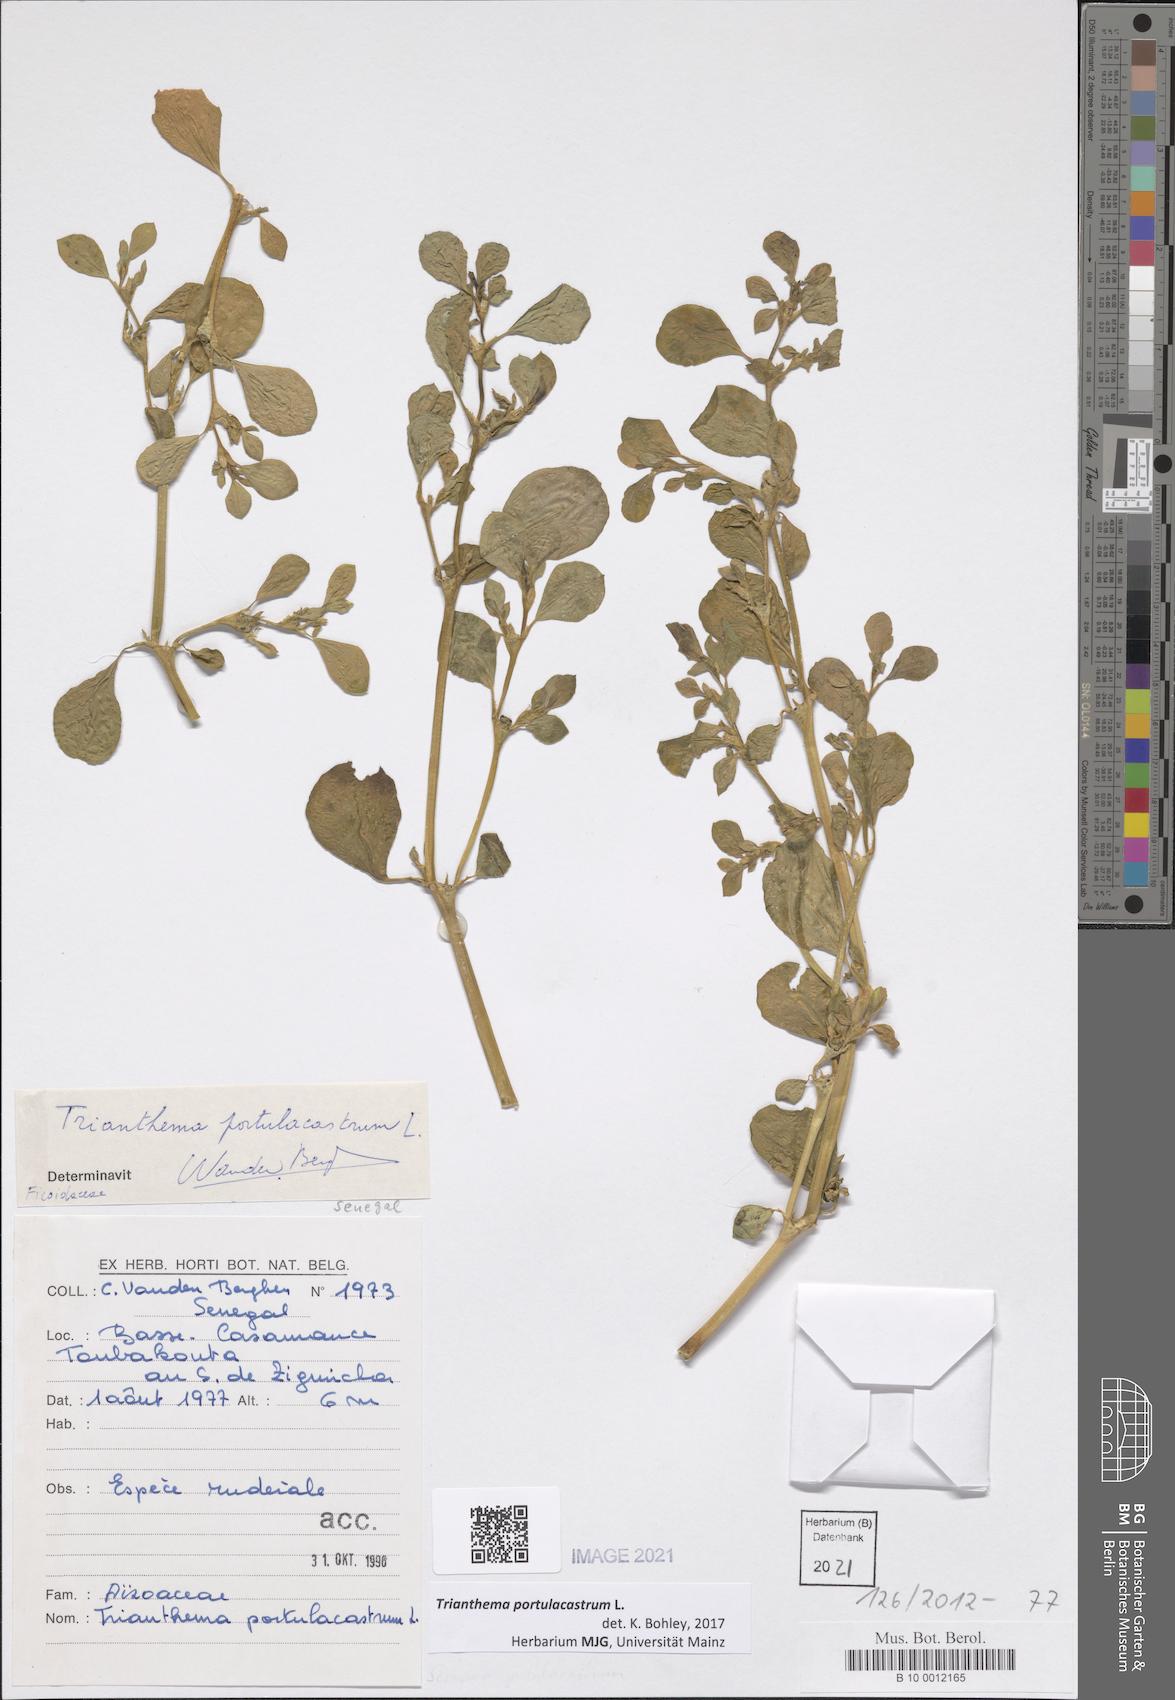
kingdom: Plantae
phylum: Tracheophyta
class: Magnoliopsida
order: Caryophyllales
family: Aizoaceae
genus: Trianthema
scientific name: Trianthema portulacastrum
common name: Desert horsepurslane
